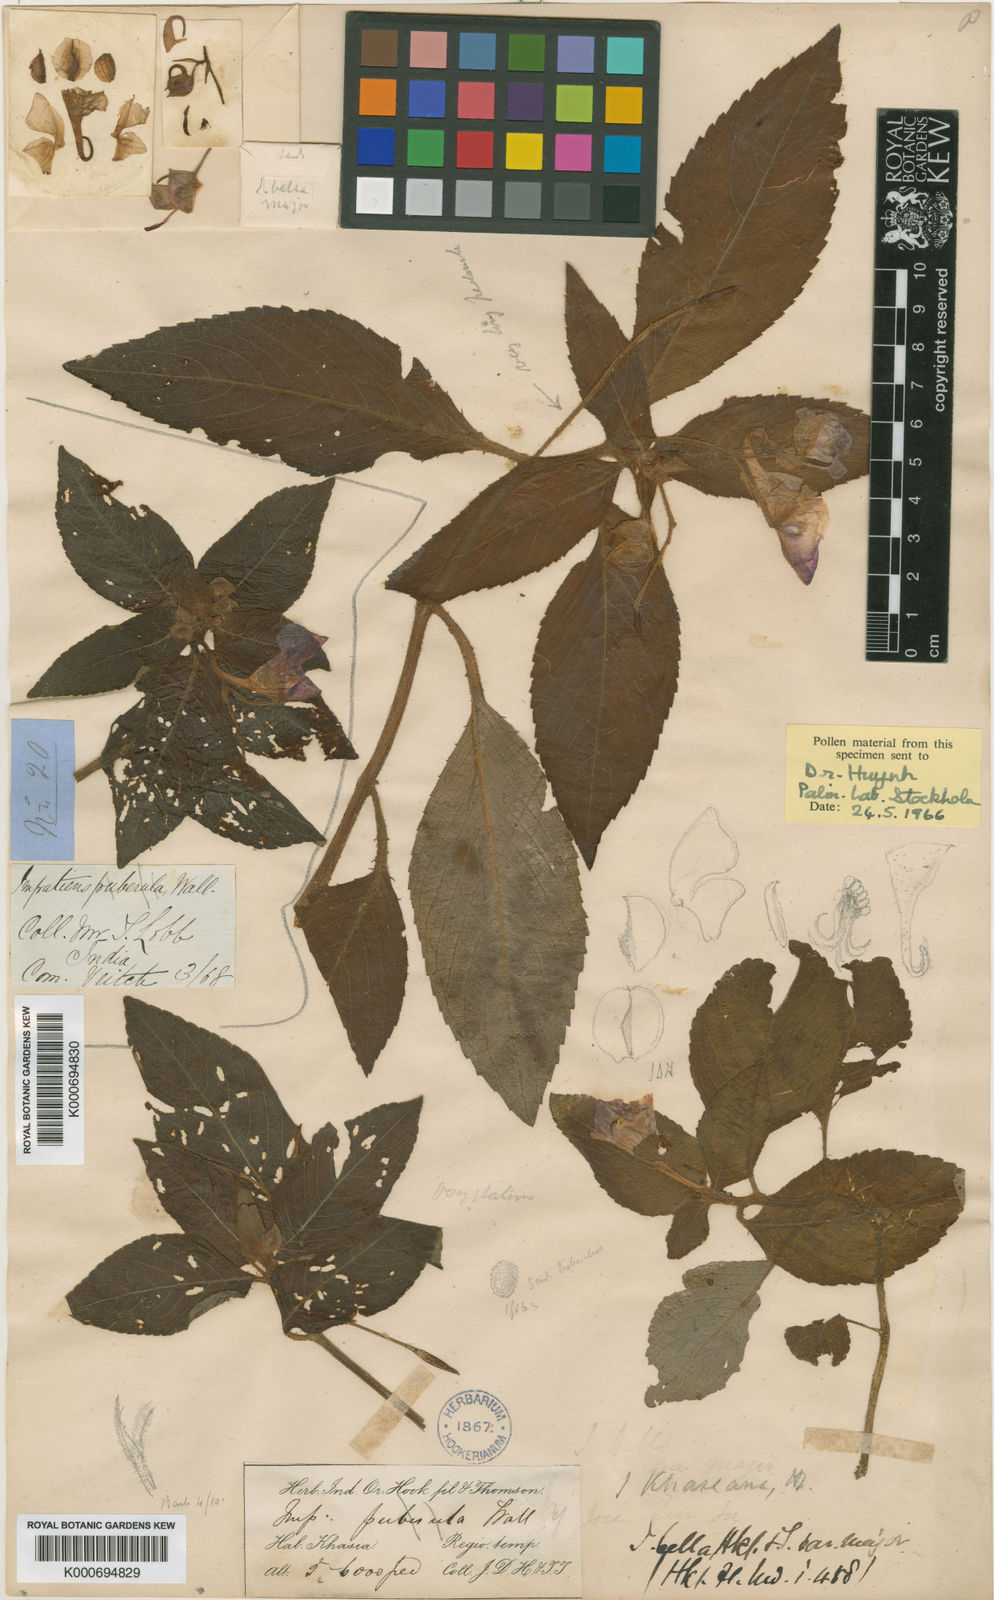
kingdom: Plantae
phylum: Tracheophyta
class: Magnoliopsida
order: Ericales
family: Balsaminaceae
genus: Impatiens
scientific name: Impatiens khasiana
